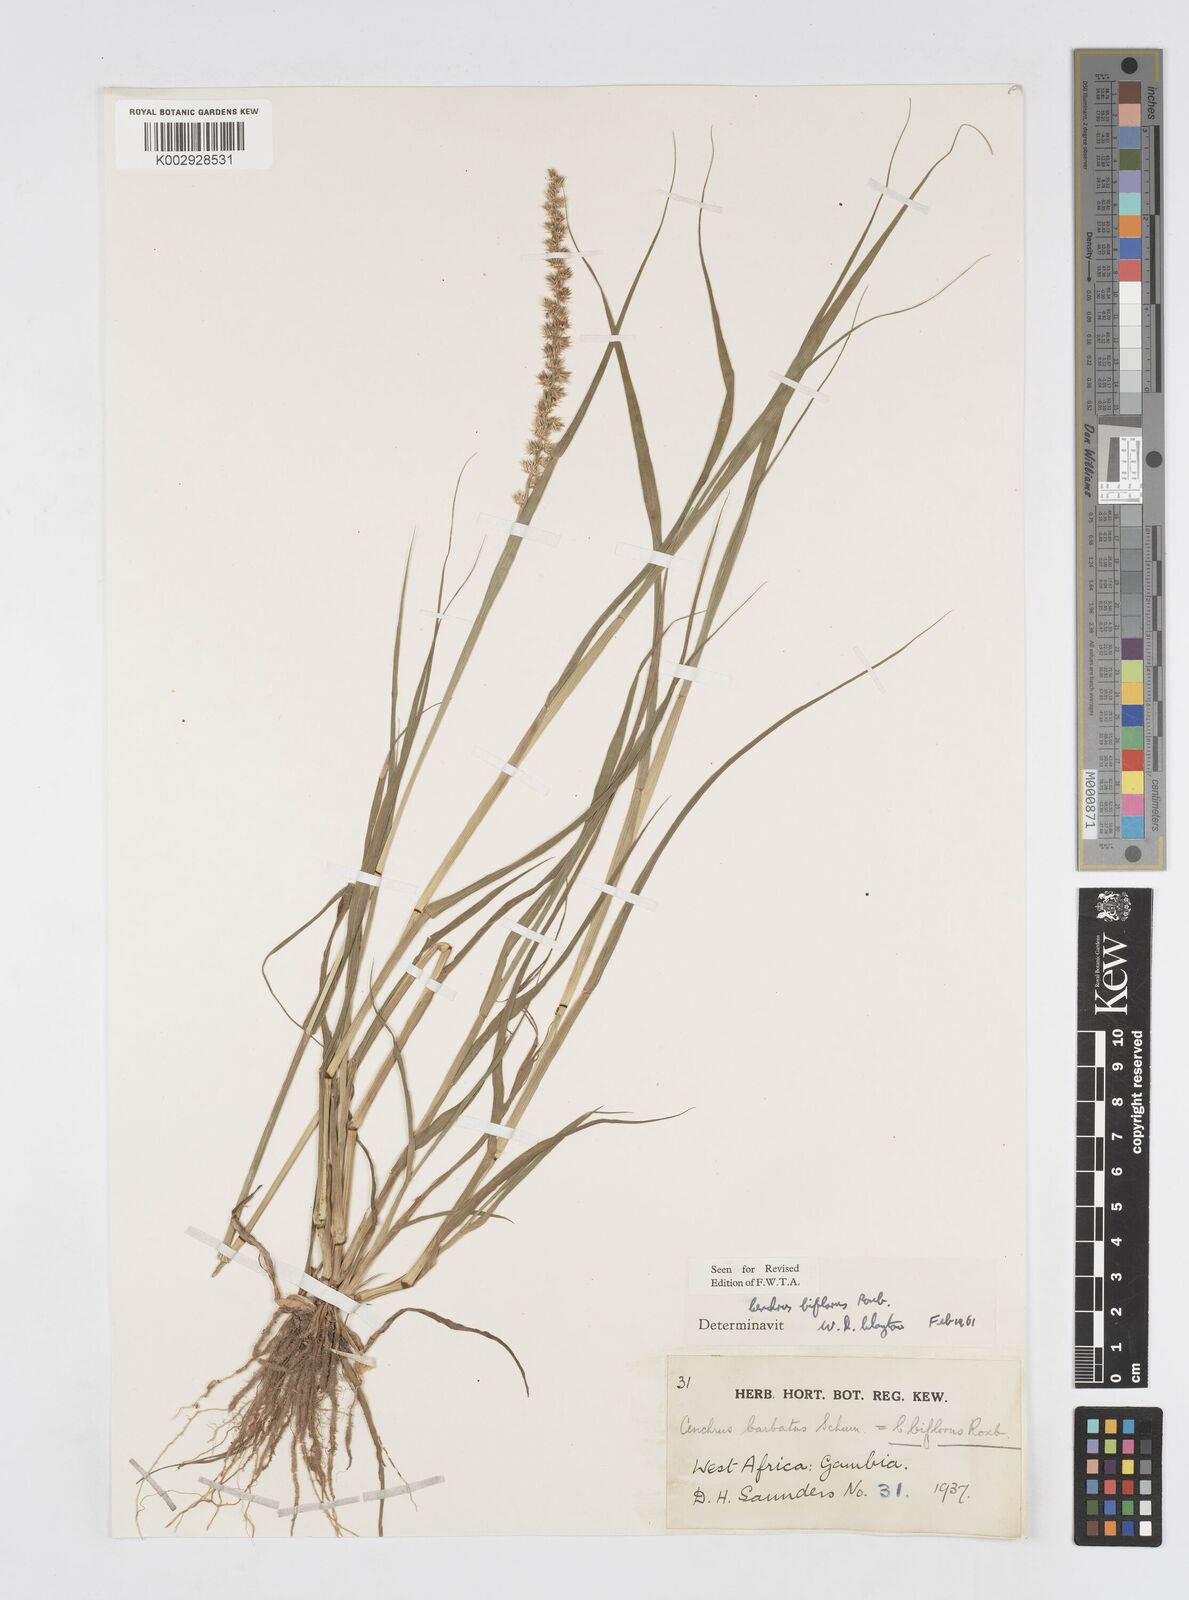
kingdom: Plantae
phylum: Tracheophyta
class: Liliopsida
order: Poales
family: Poaceae
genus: Cenchrus
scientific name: Cenchrus biflorus
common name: Indian sandbur
